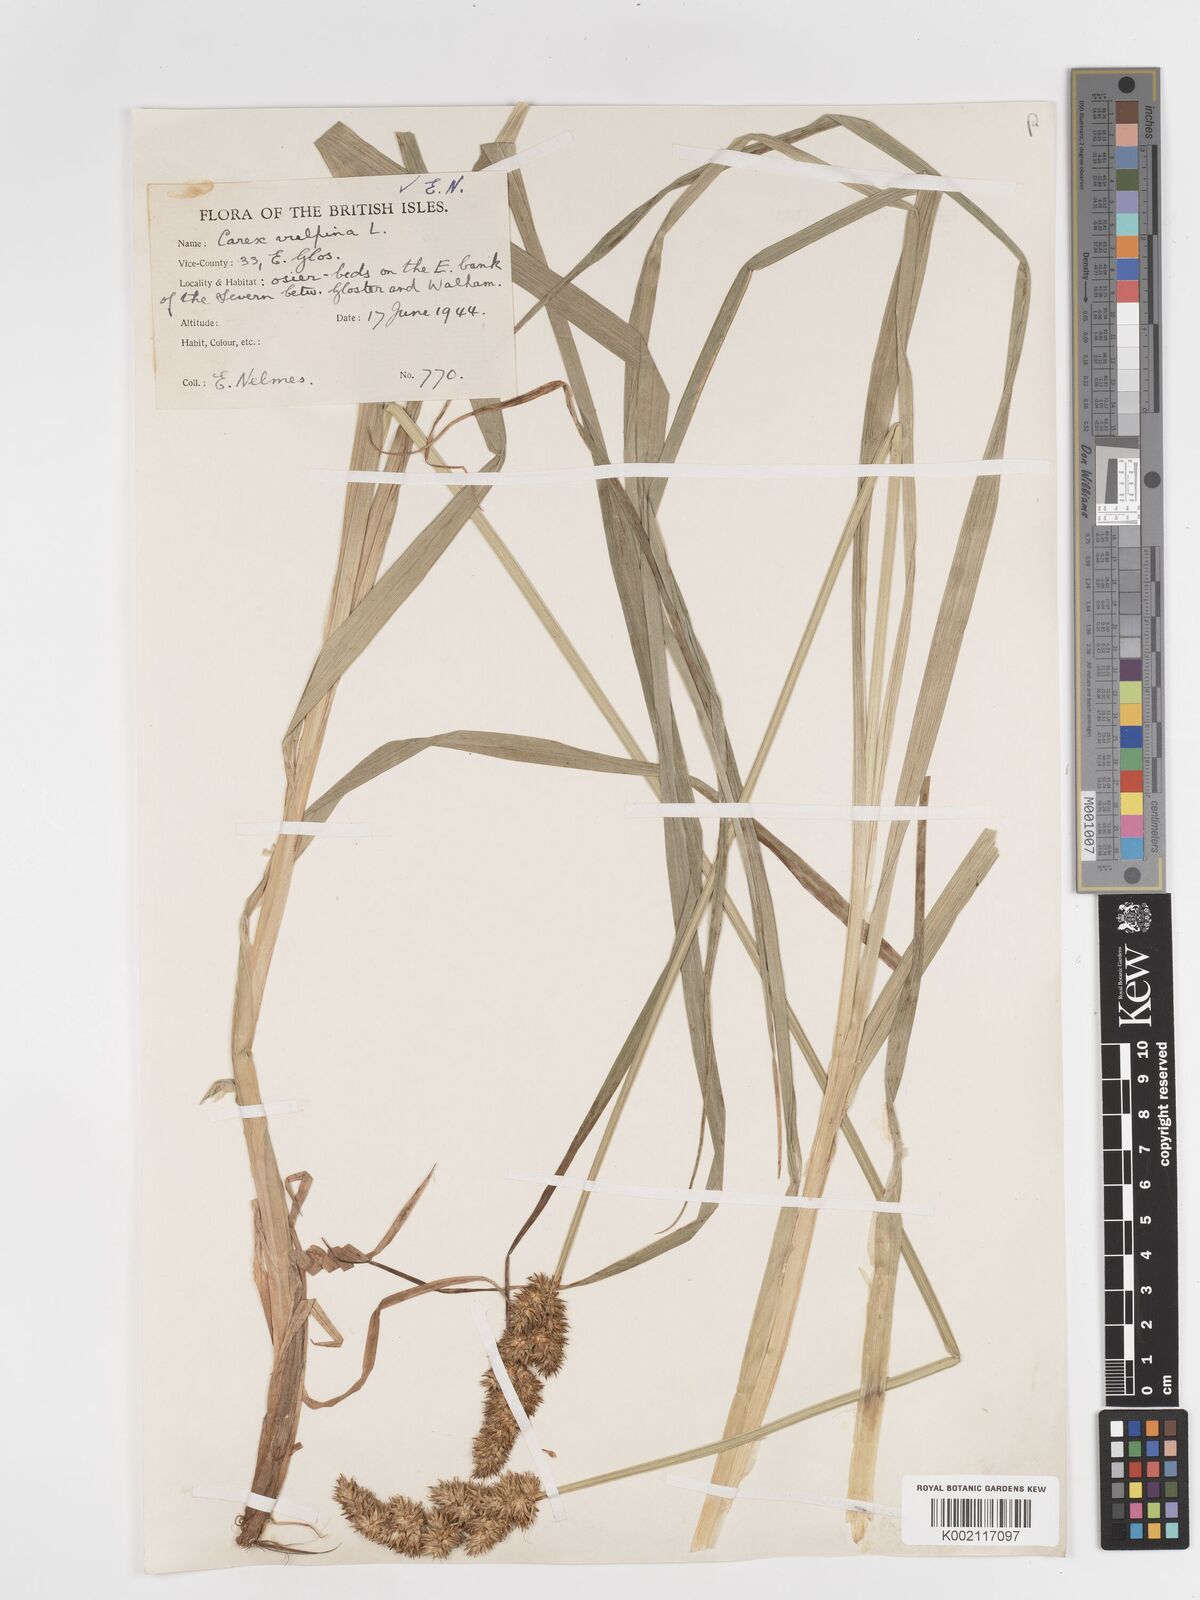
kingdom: Plantae
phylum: Tracheophyta
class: Liliopsida
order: Poales
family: Cyperaceae
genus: Carex
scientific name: Carex vulpina
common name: True fox-sedge
